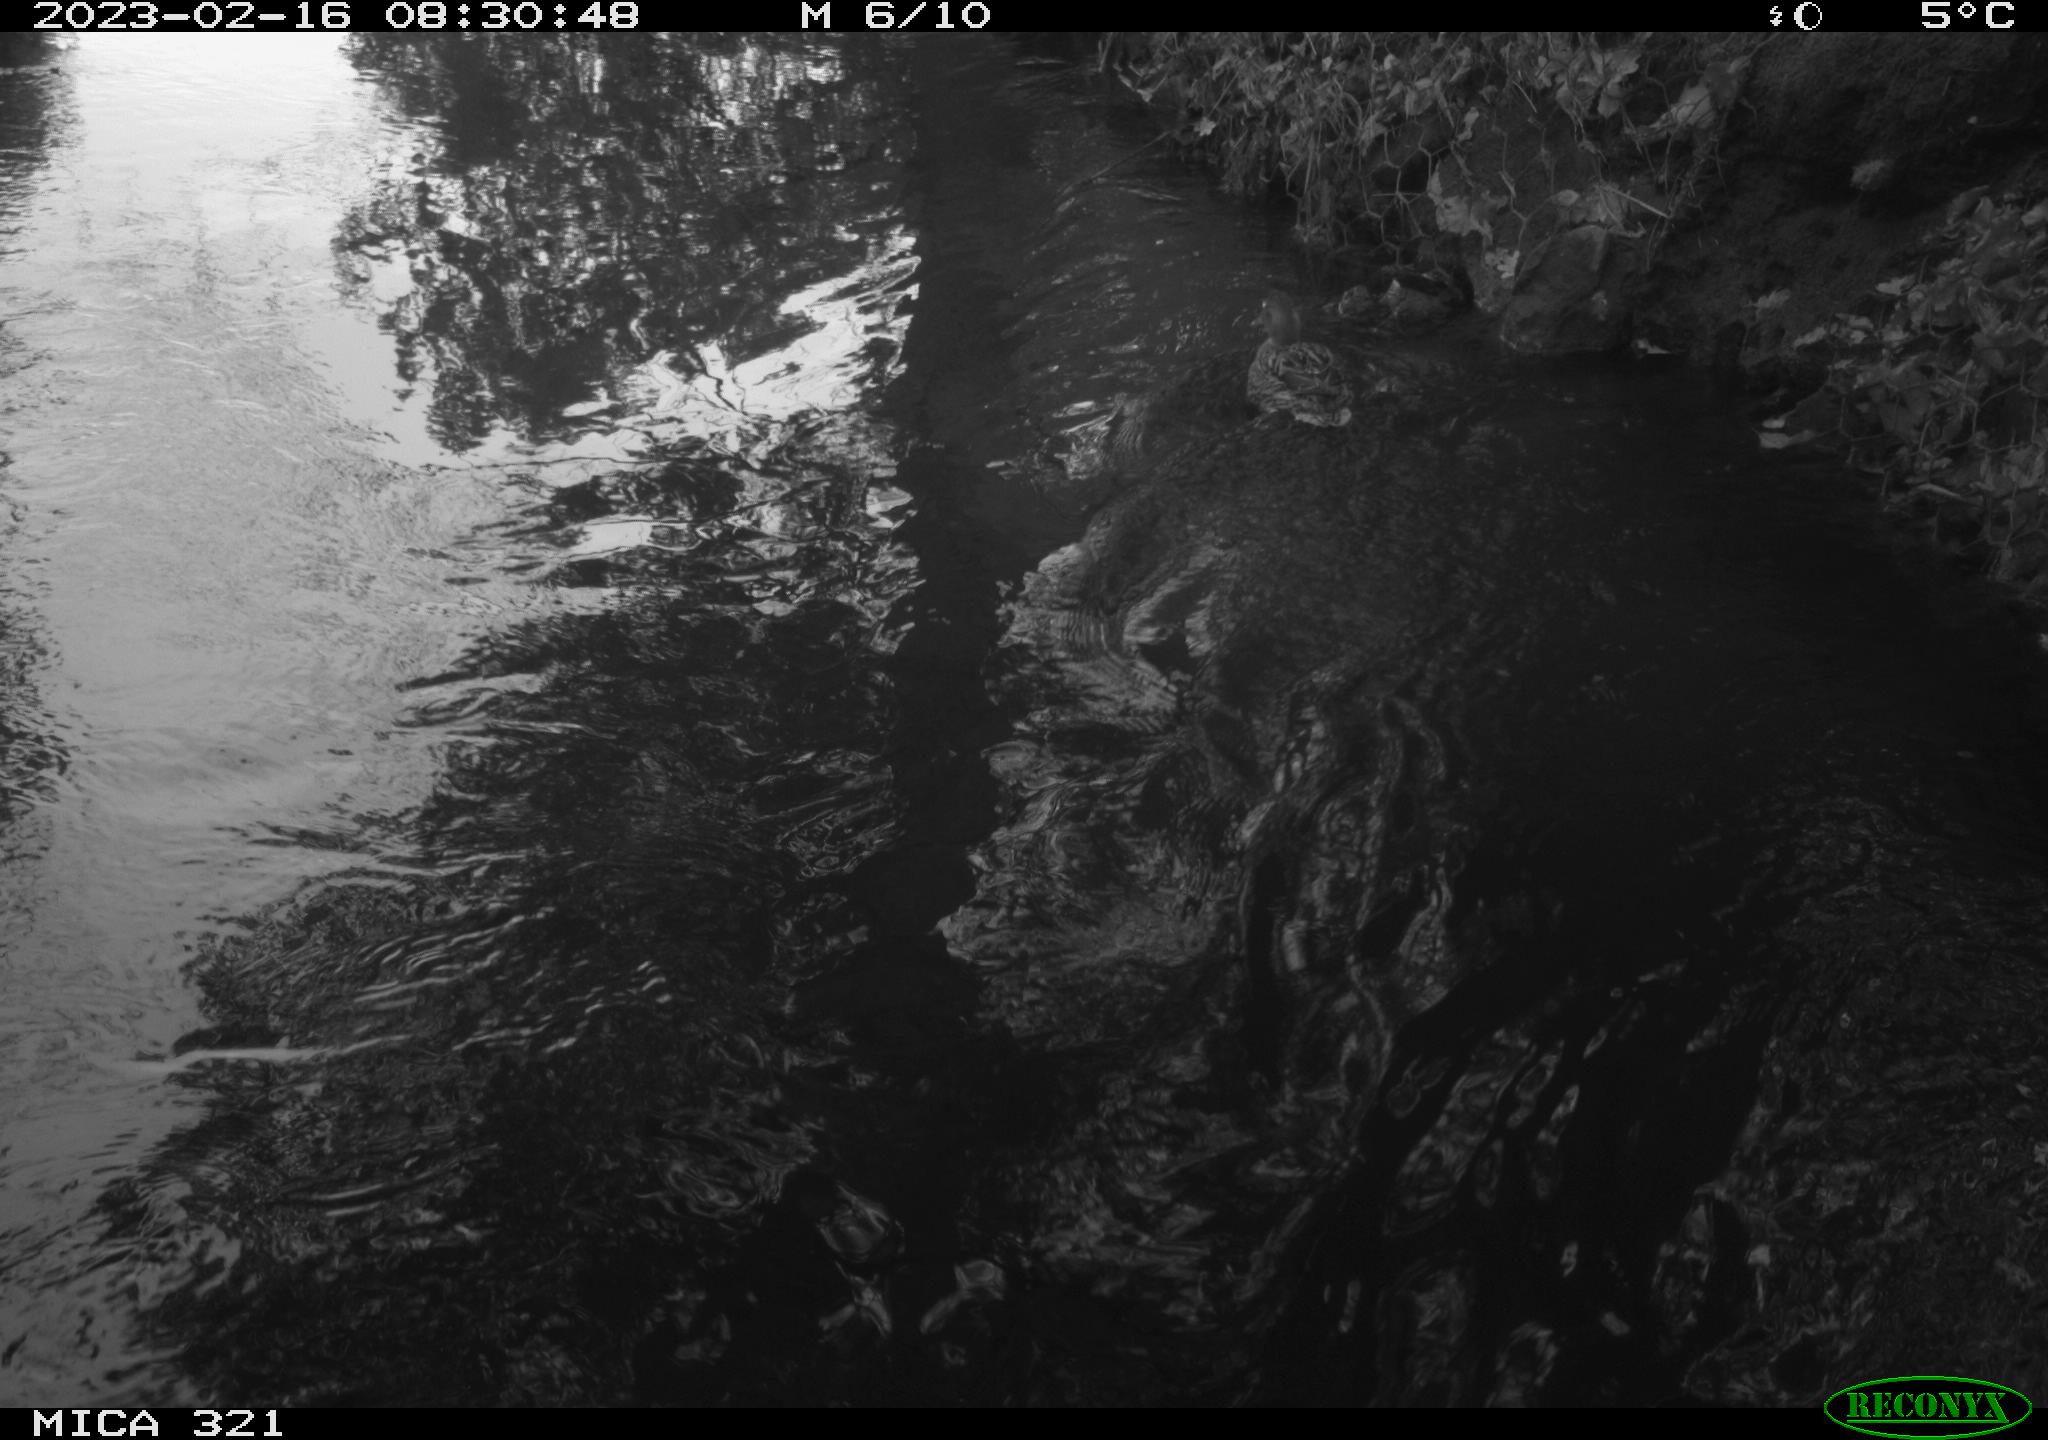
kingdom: Animalia
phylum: Chordata
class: Aves
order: Anseriformes
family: Anatidae
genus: Anas
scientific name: Anas
